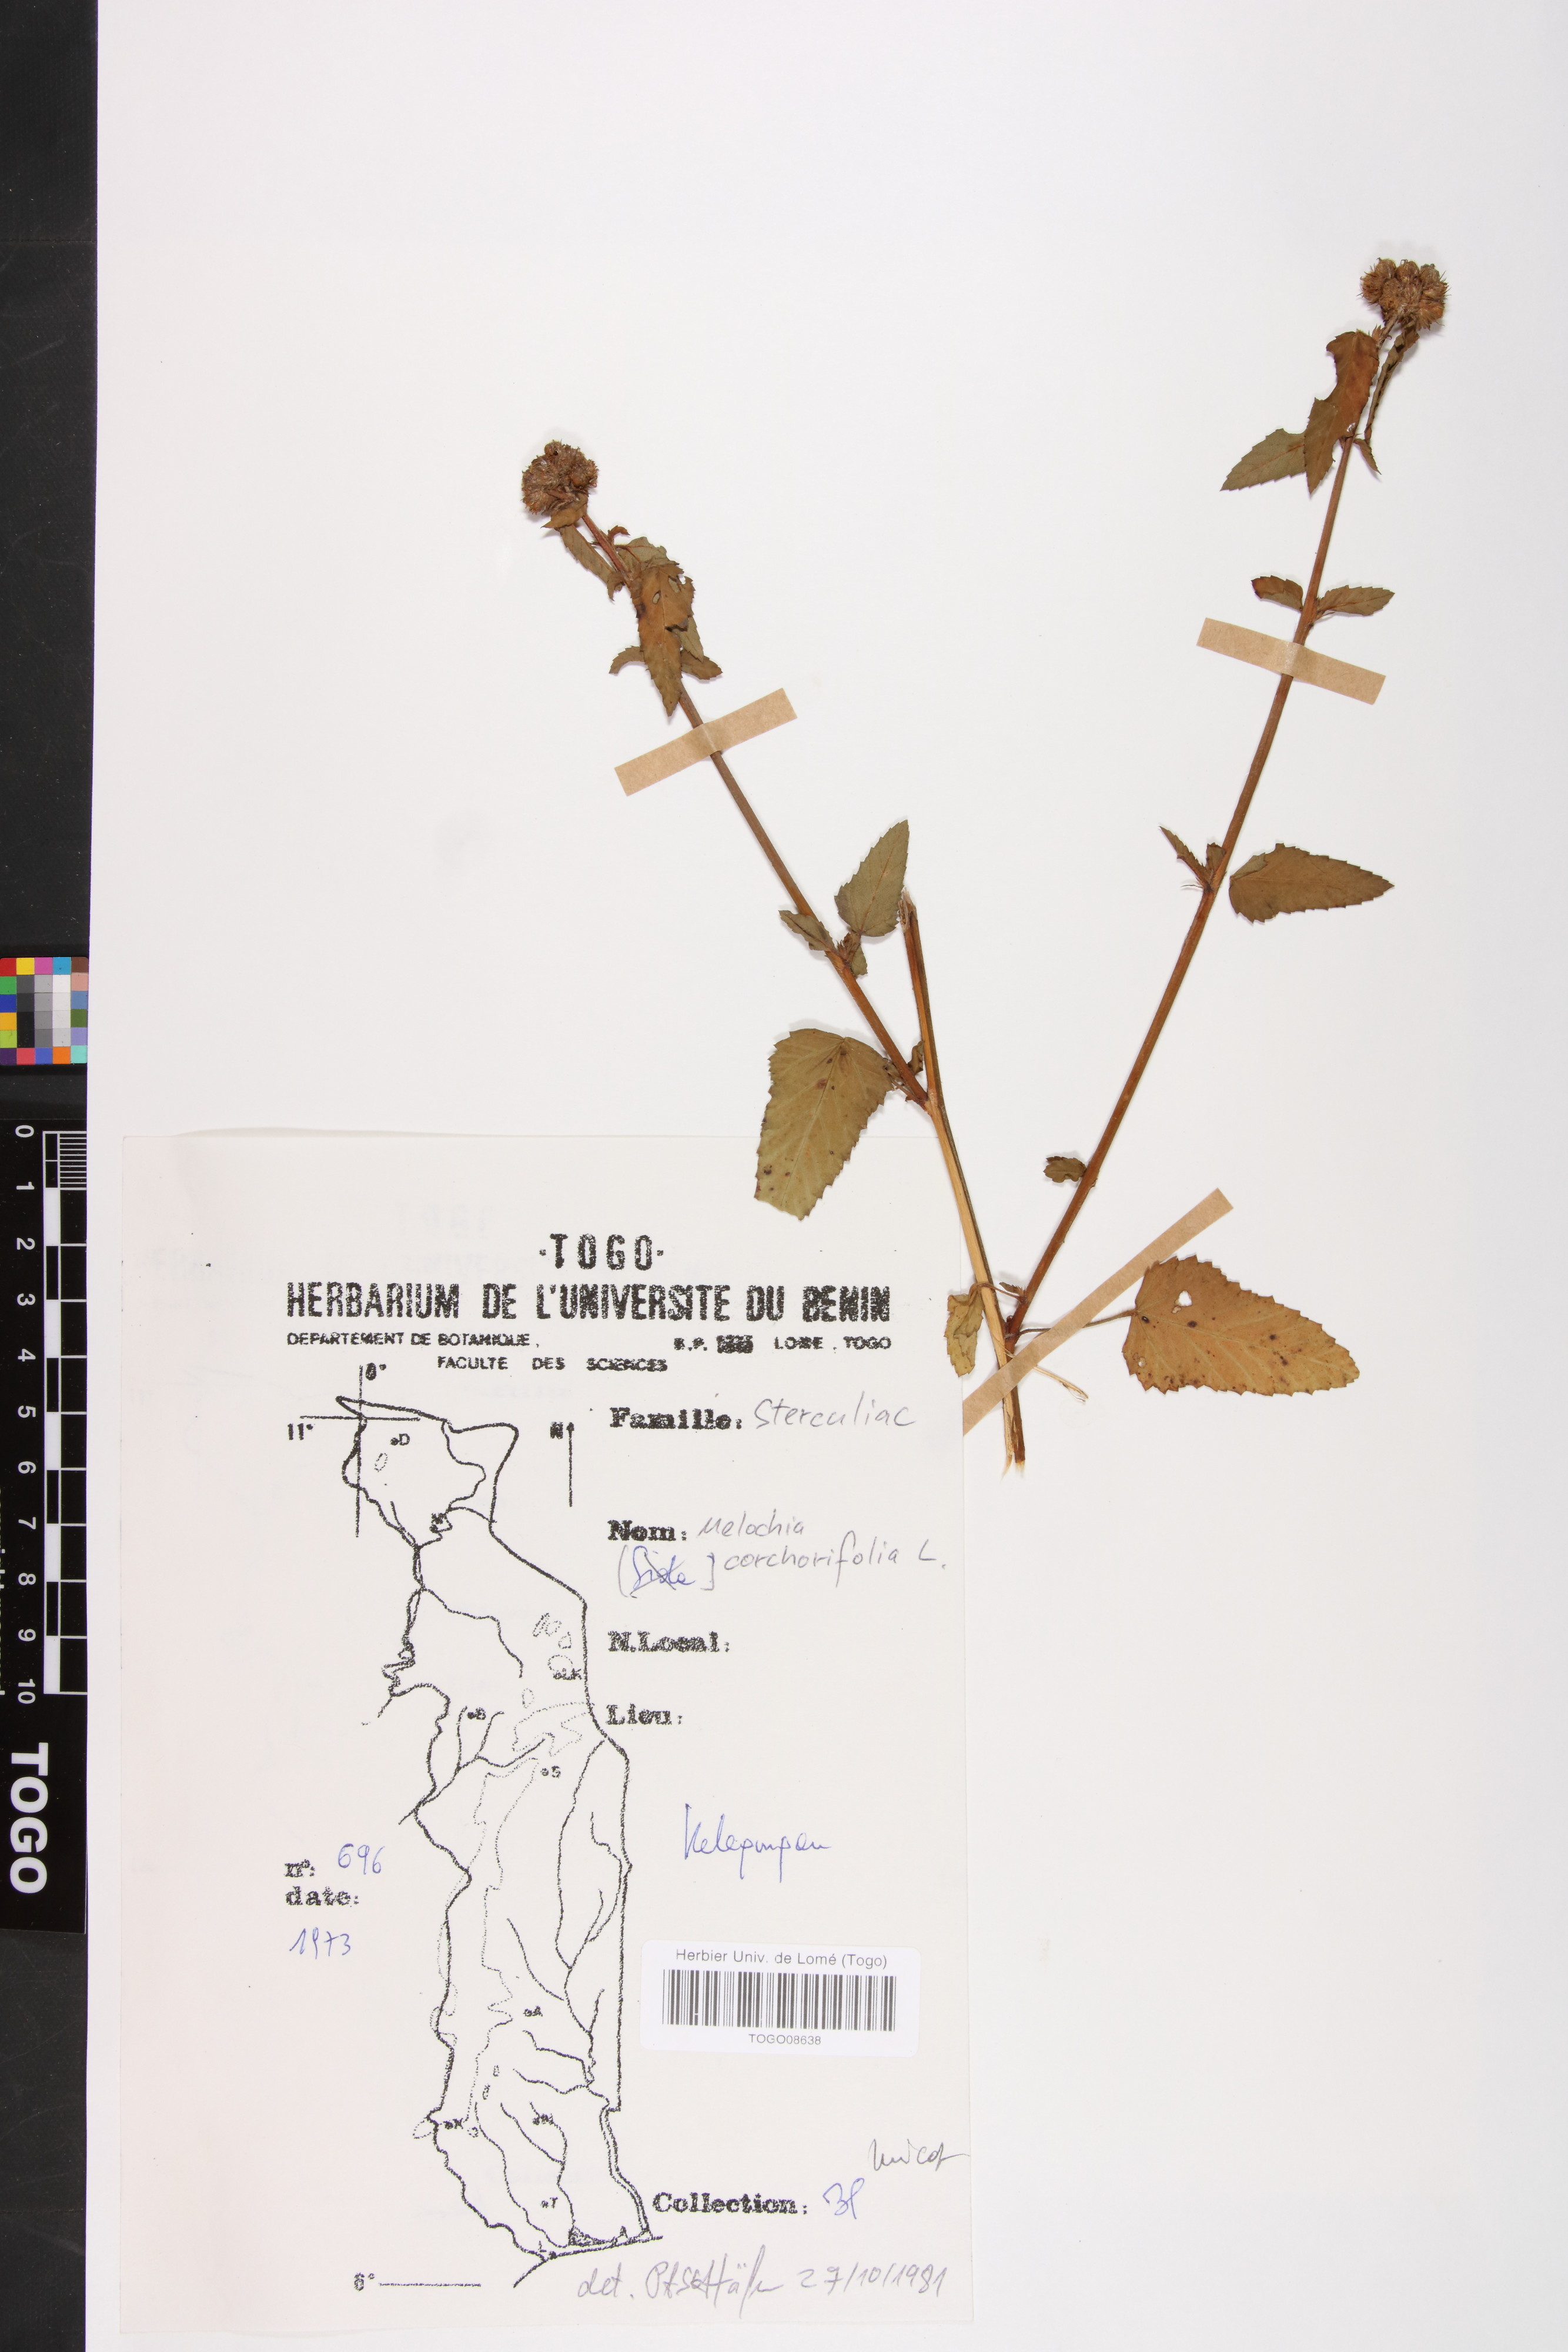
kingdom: Plantae
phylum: Tracheophyta
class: Magnoliopsida
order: Malvales
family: Malvaceae
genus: Melochia
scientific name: Melochia corchorifolia
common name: Chocolateweed
